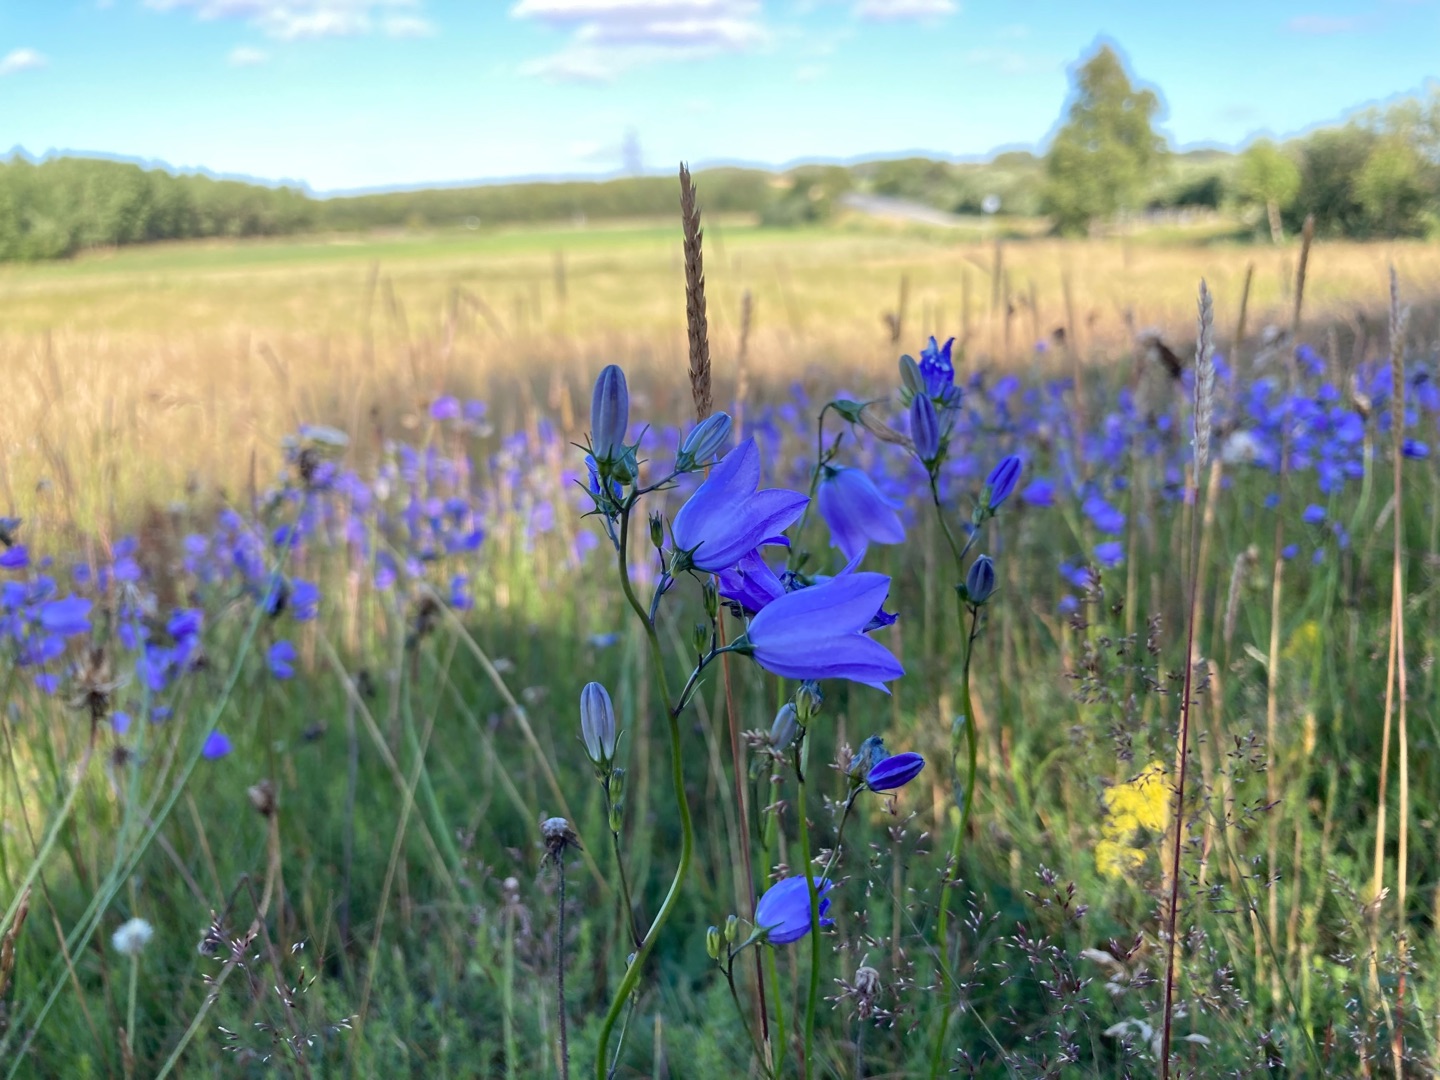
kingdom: Plantae
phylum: Tracheophyta
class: Magnoliopsida
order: Asterales
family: Campanulaceae
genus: Campanula
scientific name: Campanula rotundifolia
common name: Liden klokke
